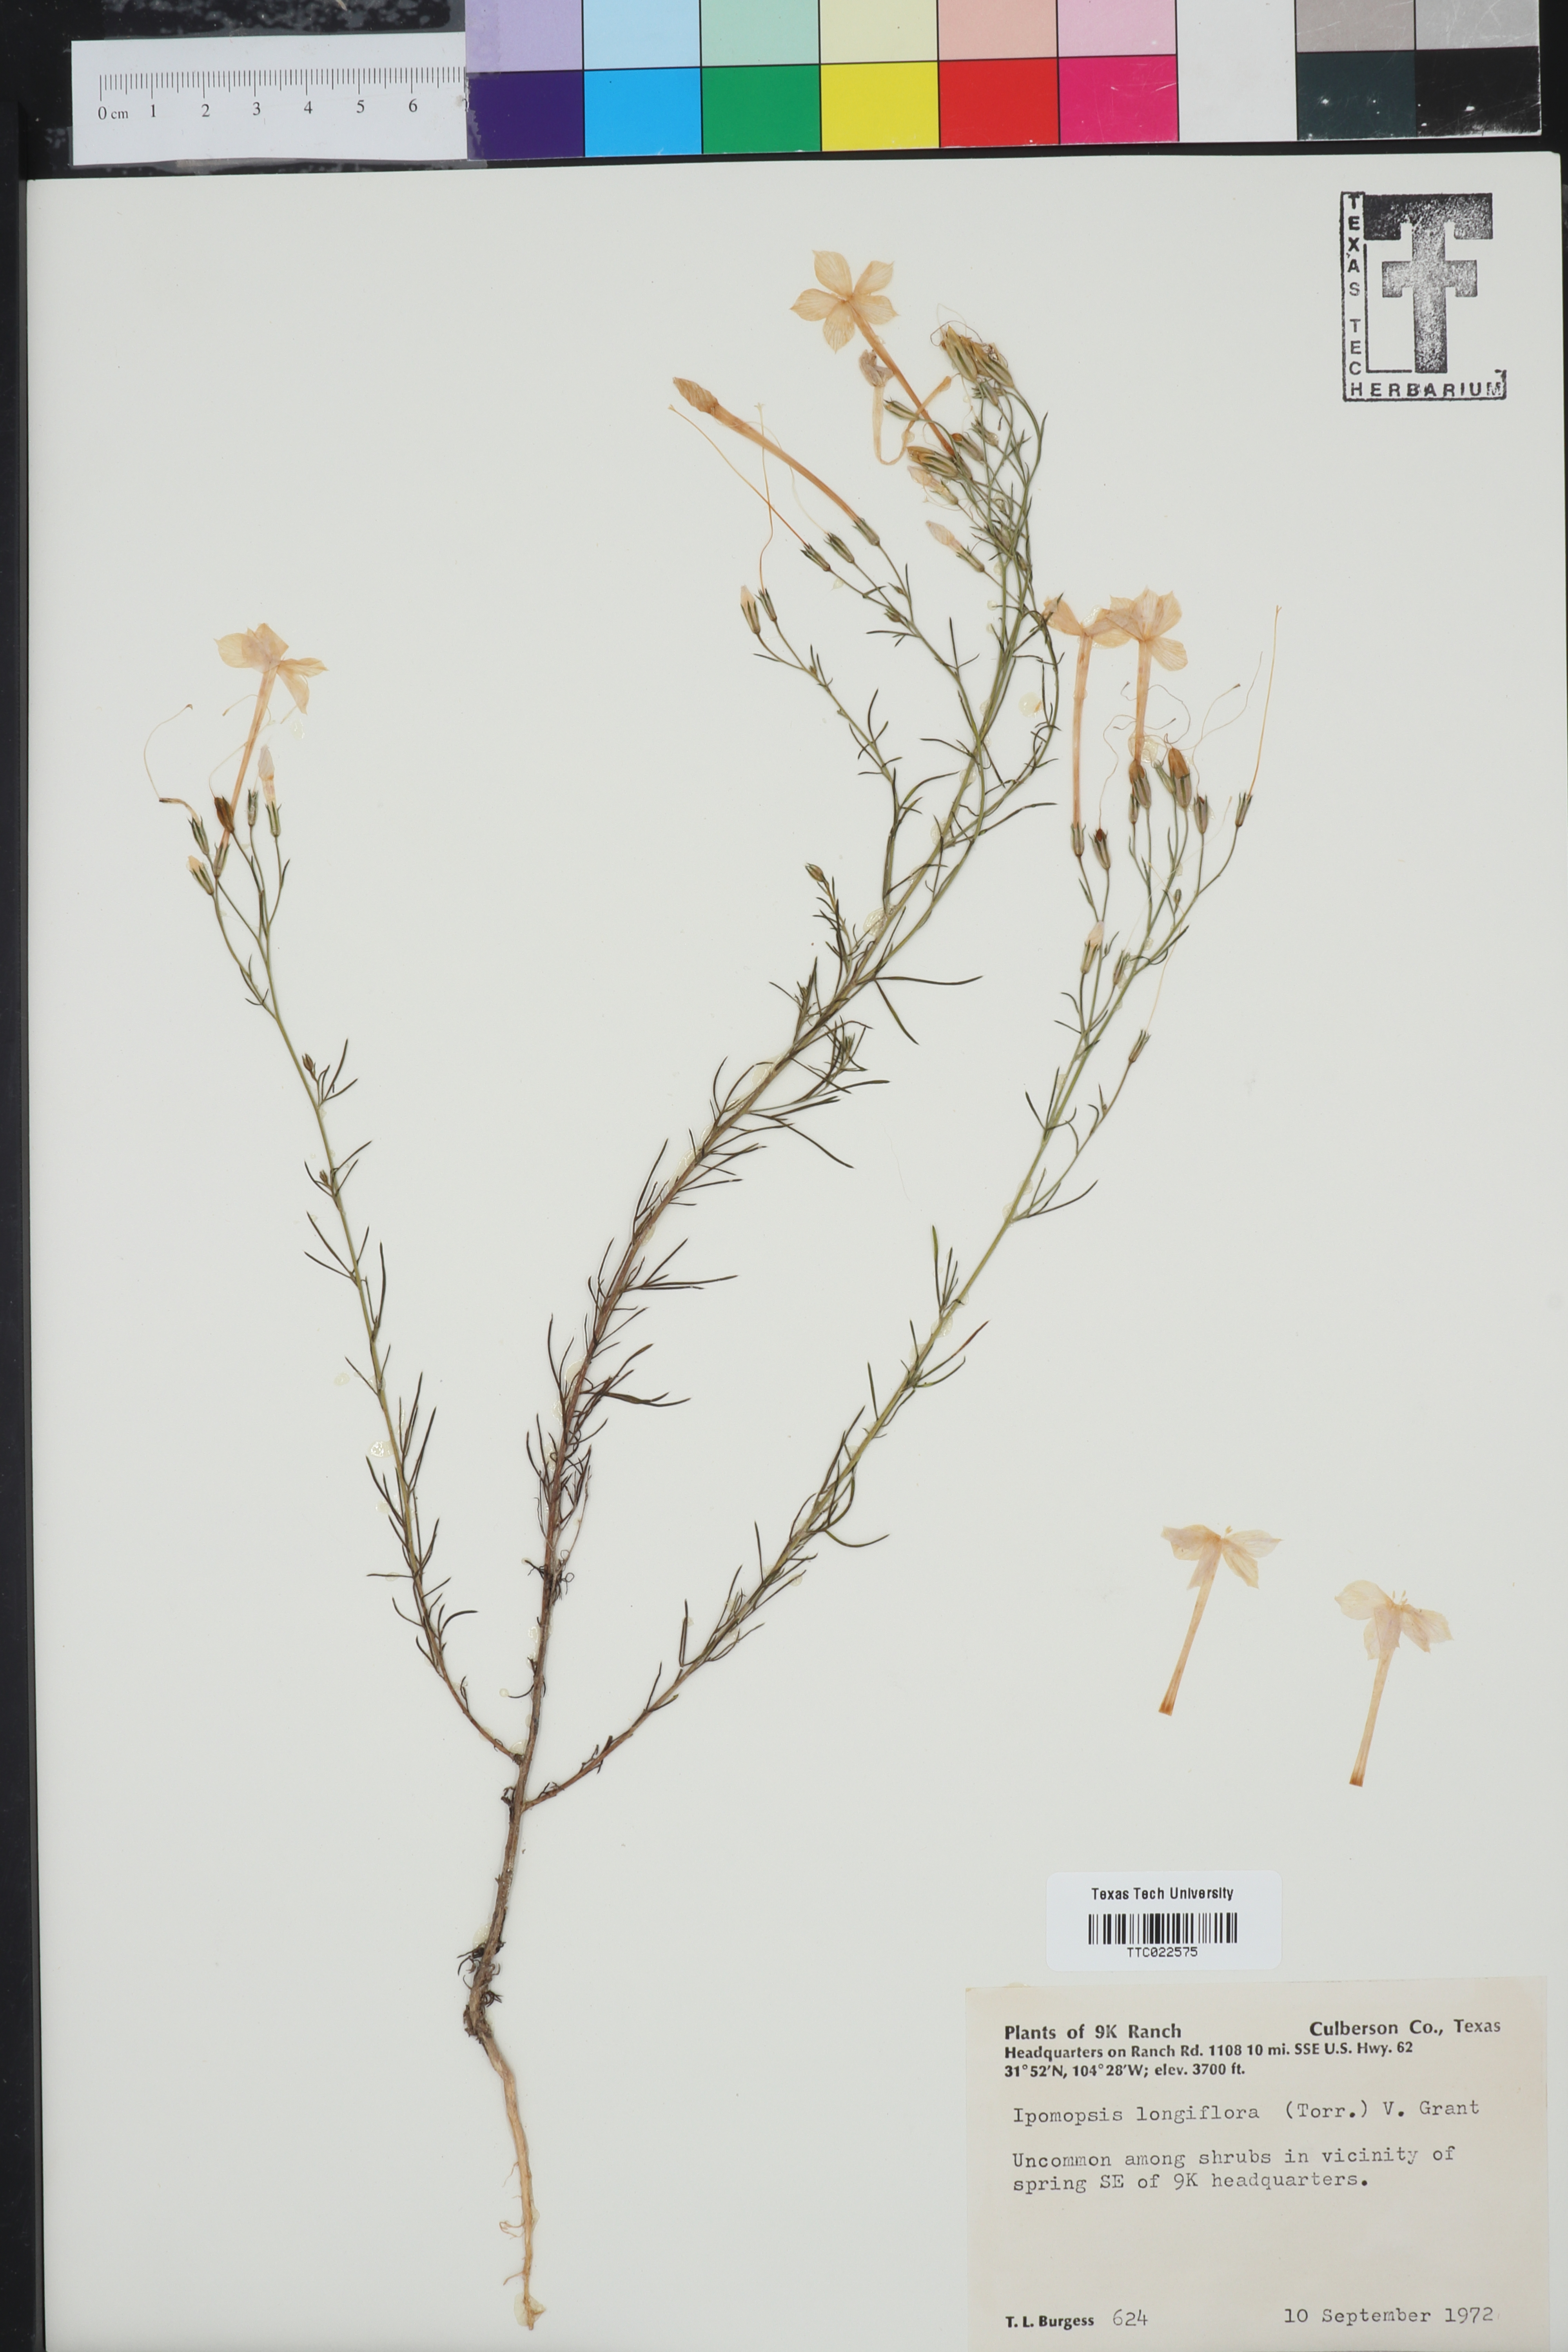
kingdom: Plantae
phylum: Tracheophyta
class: Magnoliopsida
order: Ericales
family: Polemoniaceae
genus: Ipomopsis
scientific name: Ipomopsis longiflora
